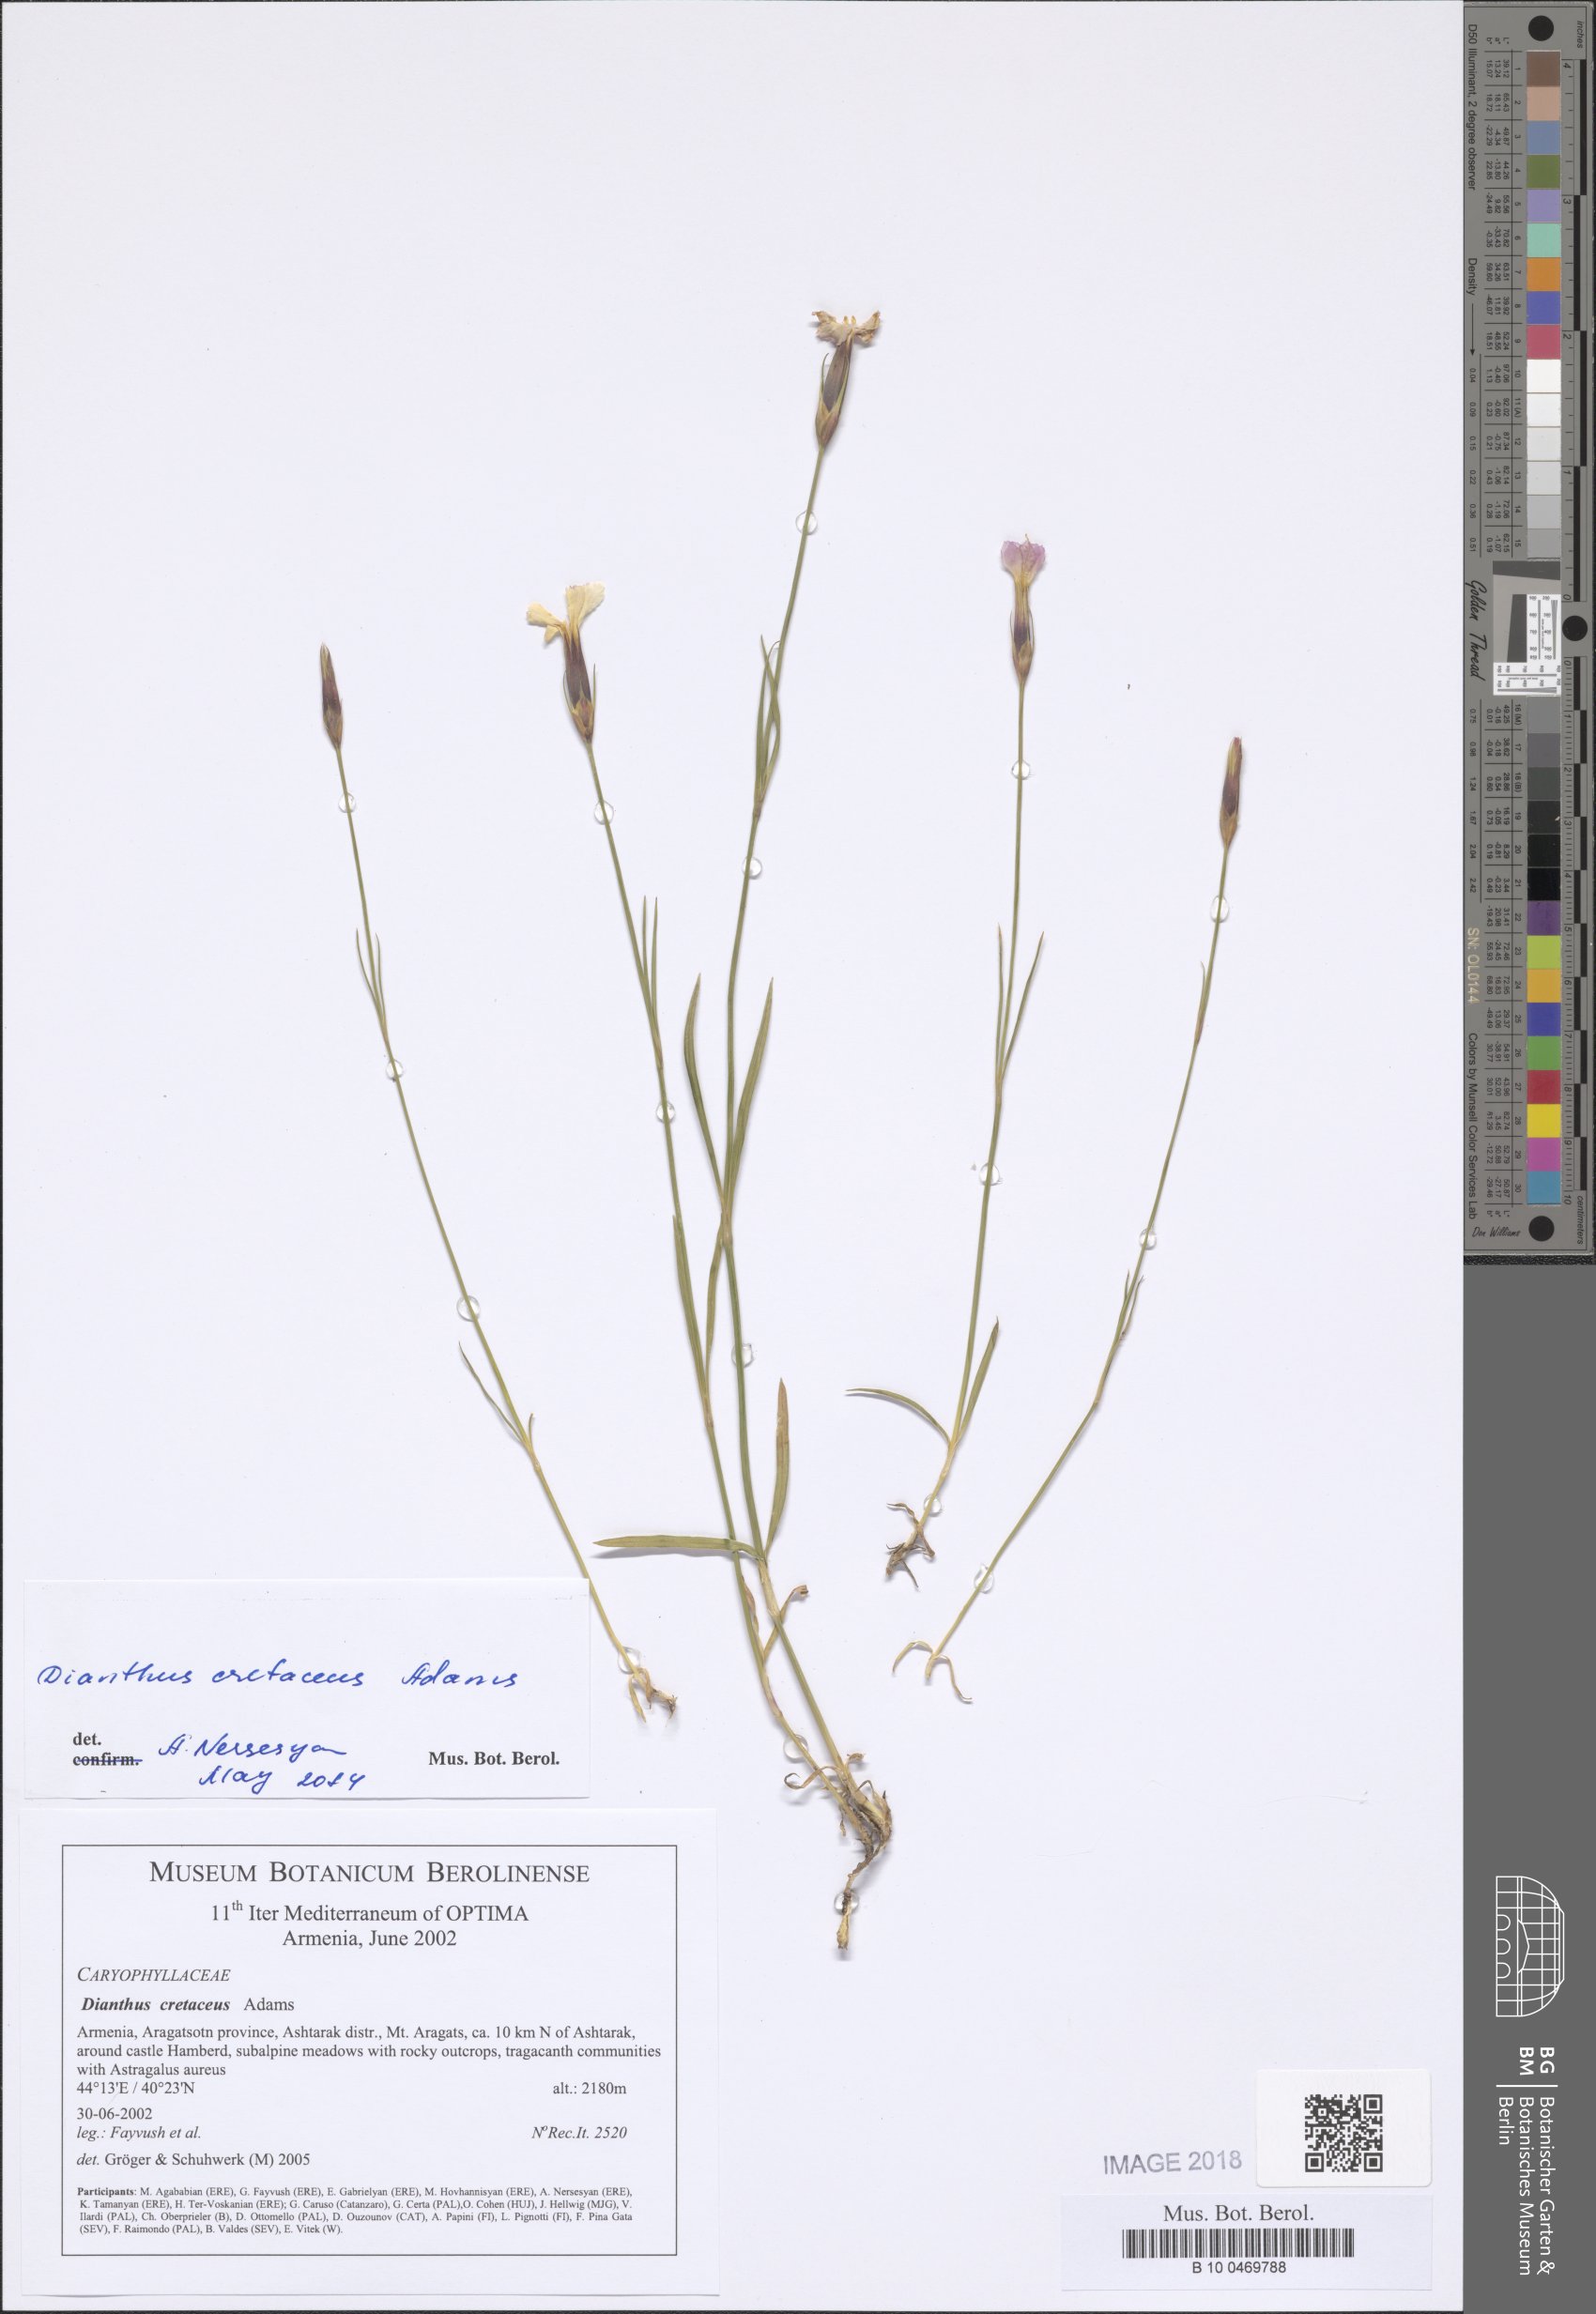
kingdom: Plantae
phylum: Tracheophyta
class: Magnoliopsida
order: Caryophyllales
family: Caryophyllaceae
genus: Dianthus
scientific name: Dianthus cretaceus
